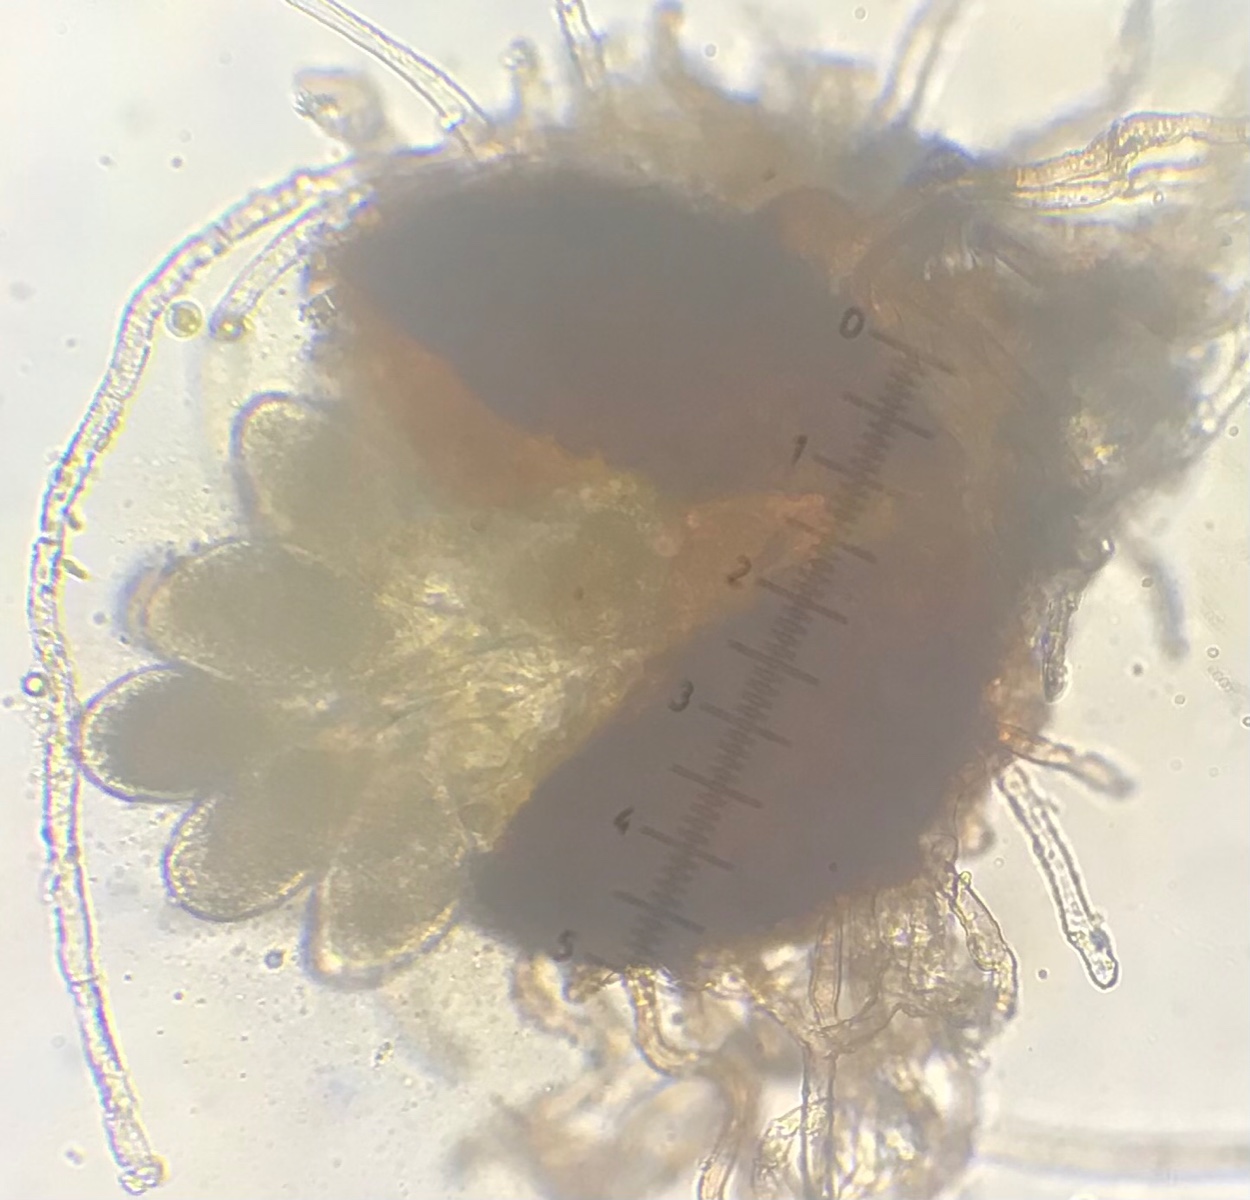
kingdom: Fungi
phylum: Ascomycota
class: Leotiomycetes
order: Helotiales
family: Erysiphaceae
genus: Golovinomyces
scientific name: Golovinomyces sordidus
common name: Plantain mildew
